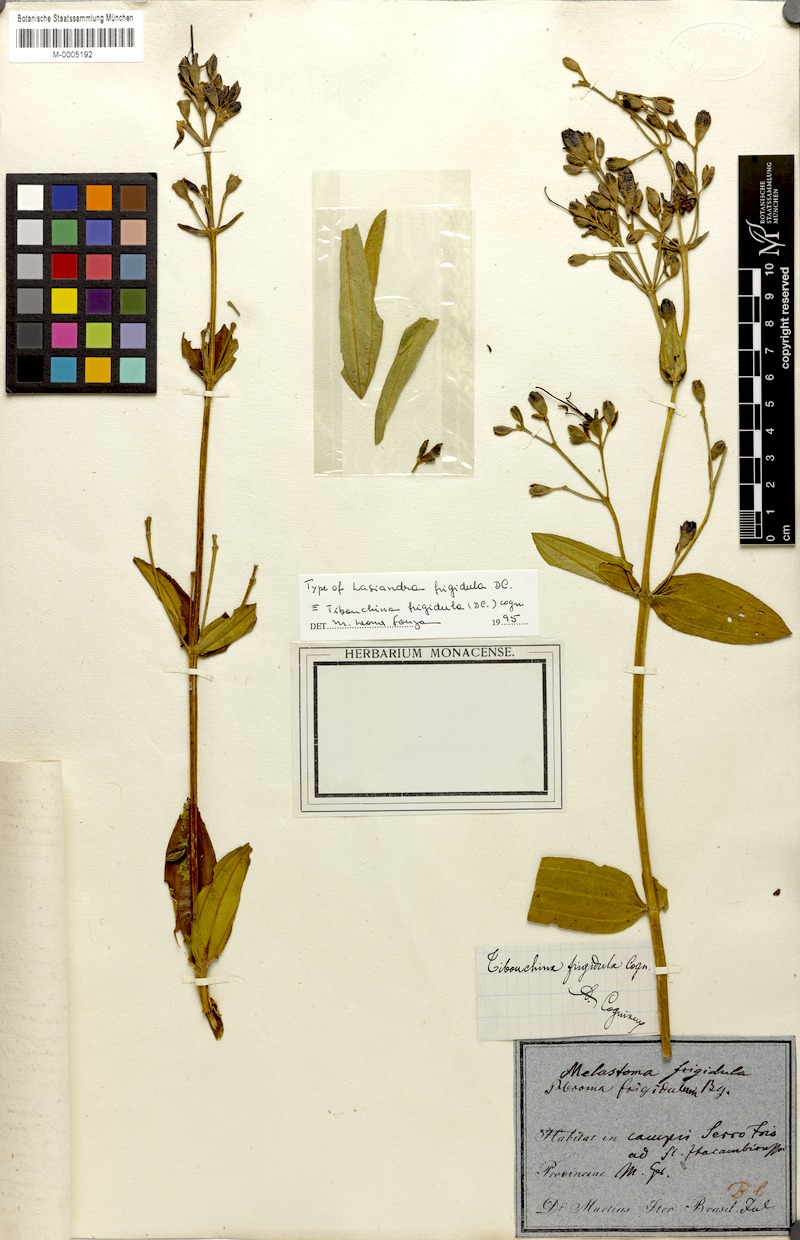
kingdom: Plantae
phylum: Tracheophyta
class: Magnoliopsida
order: Myrtales
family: Melastomataceae
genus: Pleroma
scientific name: Pleroma martiusianum
